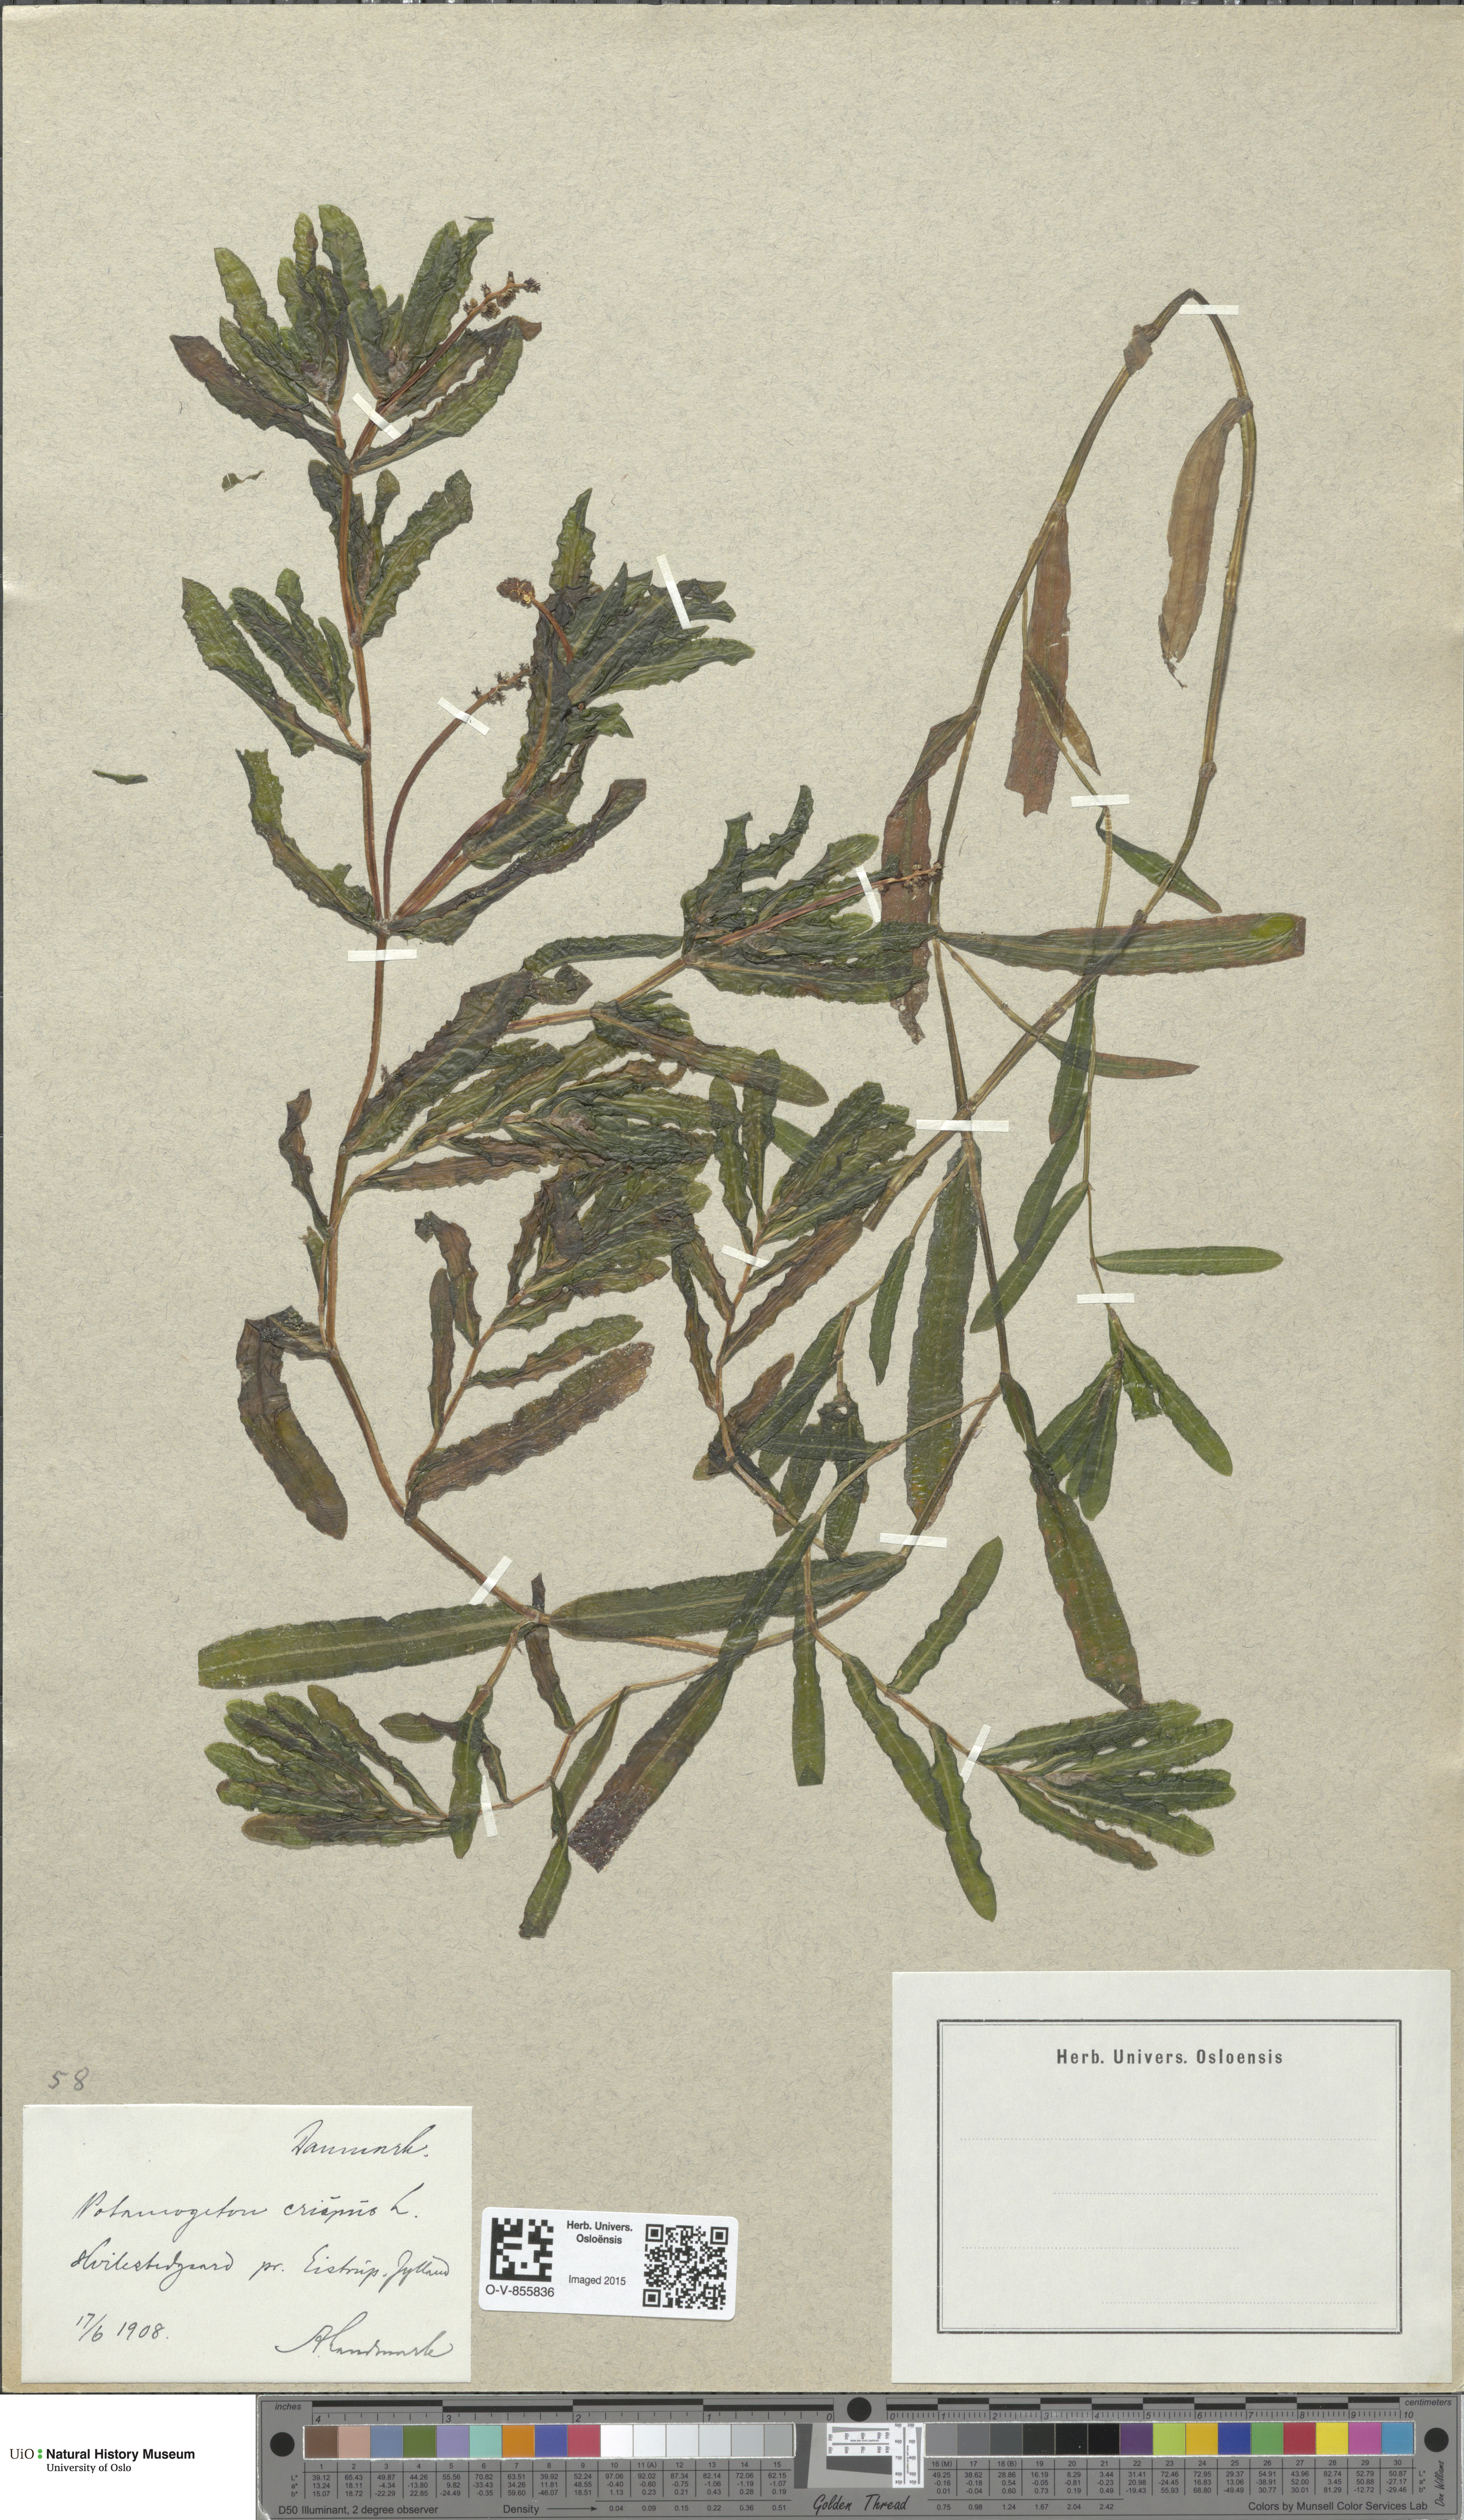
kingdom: Plantae
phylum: Tracheophyta
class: Liliopsida
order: Alismatales
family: Potamogetonaceae
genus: Potamogeton
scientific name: Potamogeton crispus
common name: Curled pondweed
